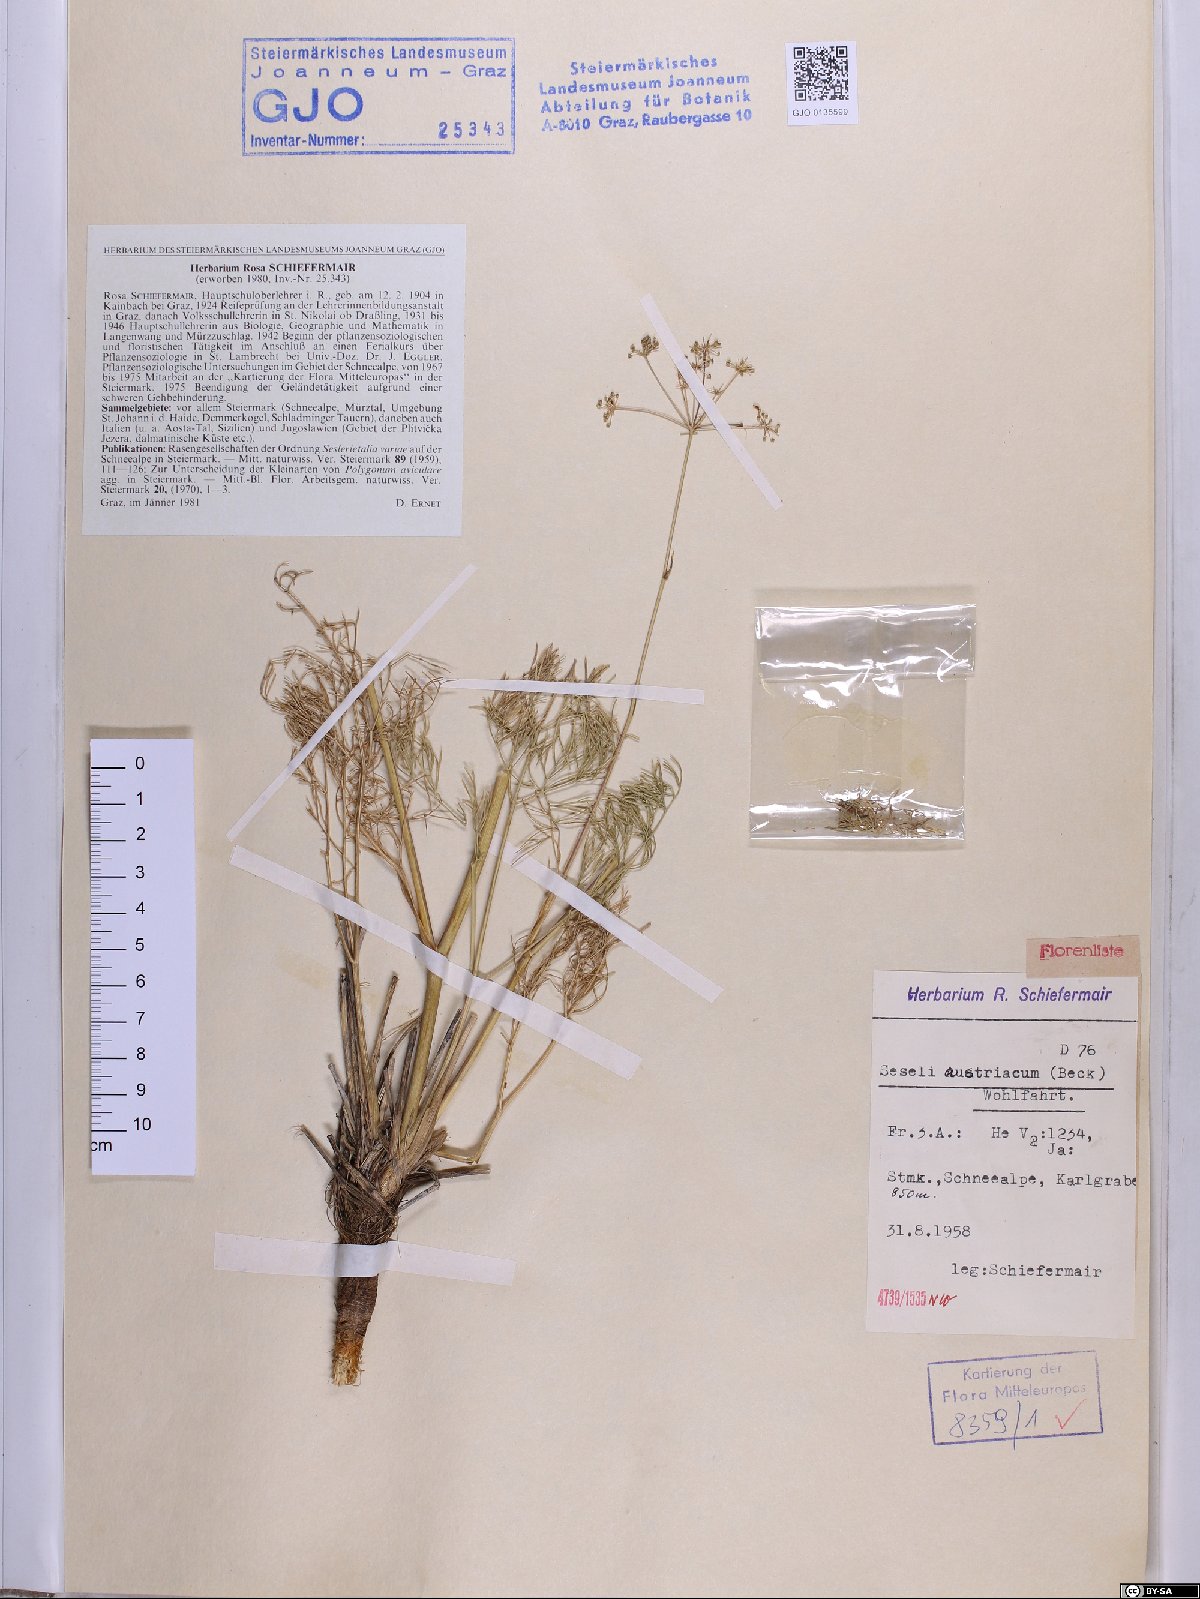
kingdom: Plantae
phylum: Tracheophyta
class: Magnoliopsida
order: Apiales
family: Apiaceae
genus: Seseli
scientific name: Seseli austriacum
